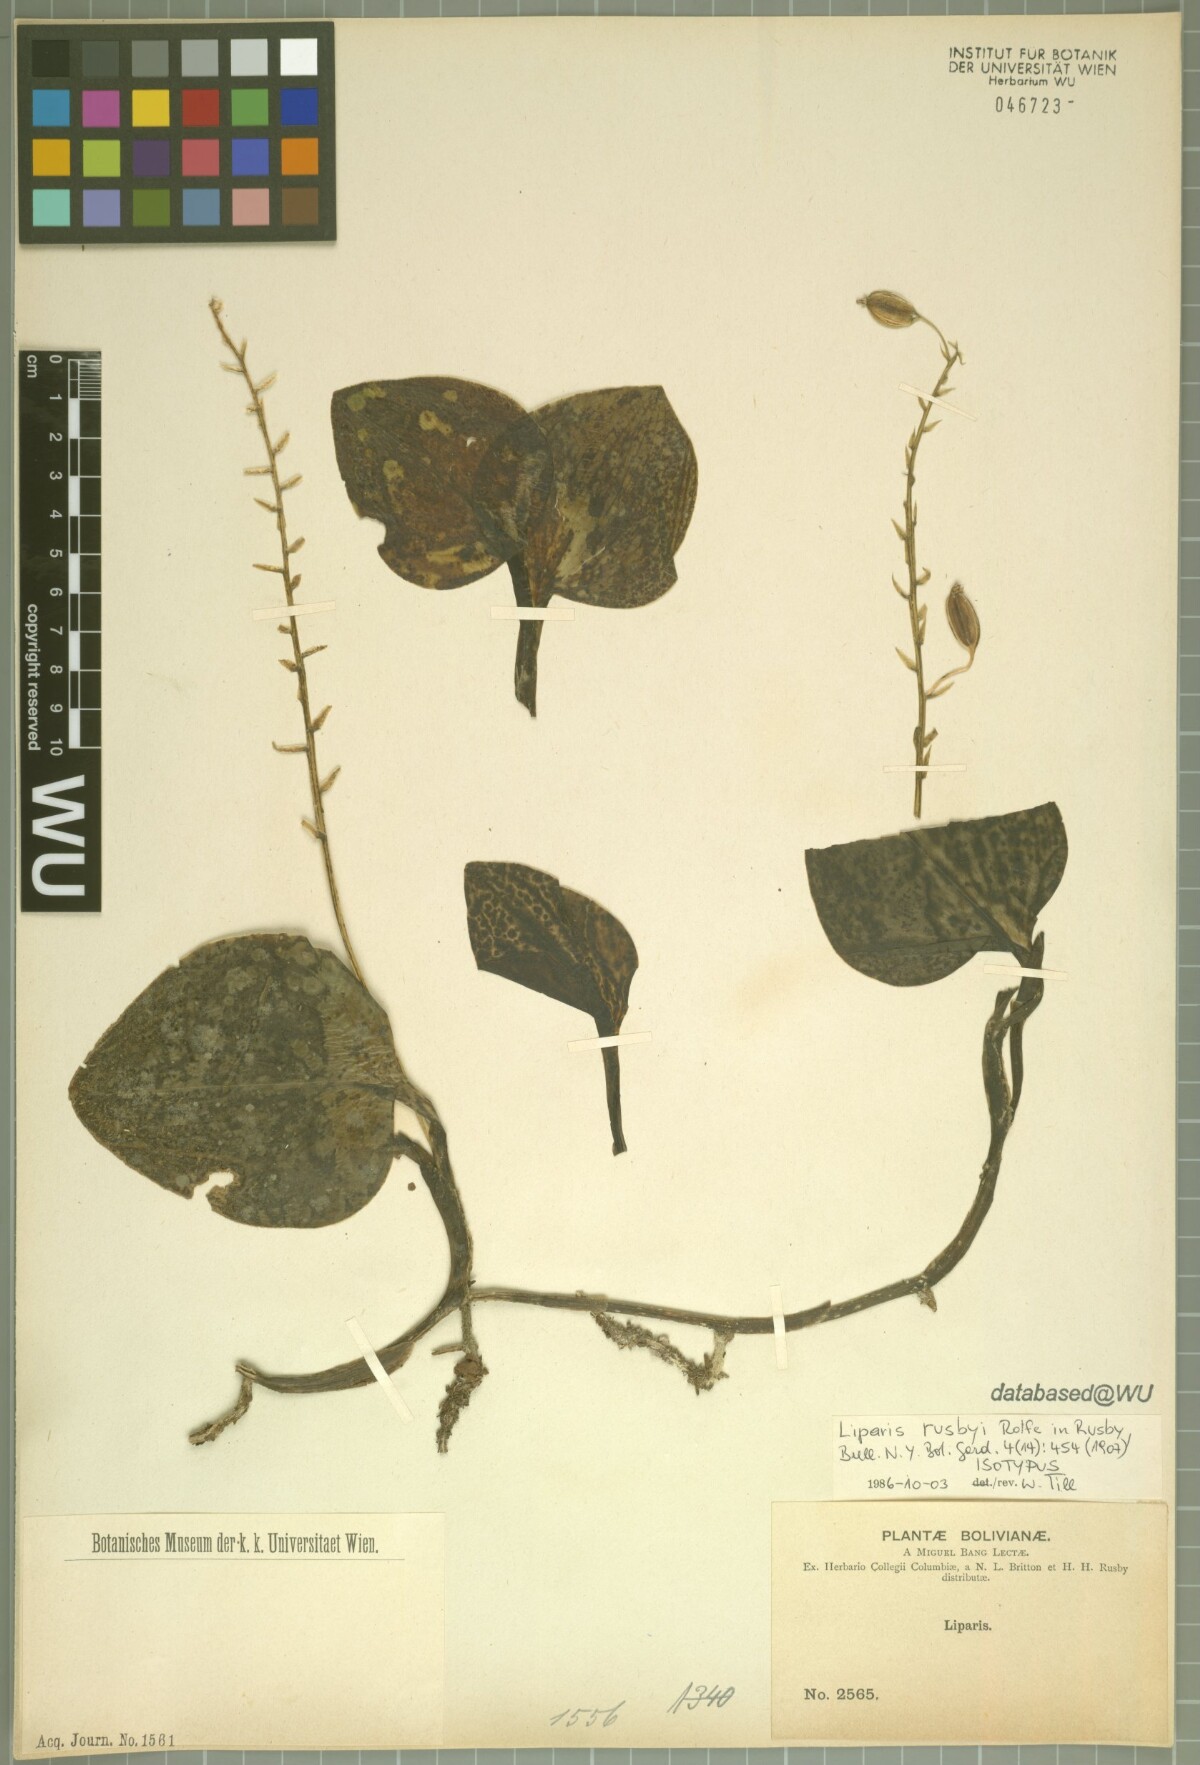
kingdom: Plantae
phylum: Tracheophyta
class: Liliopsida
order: Asparagales
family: Orchidaceae
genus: Liparis
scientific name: Liparis rusbyi
